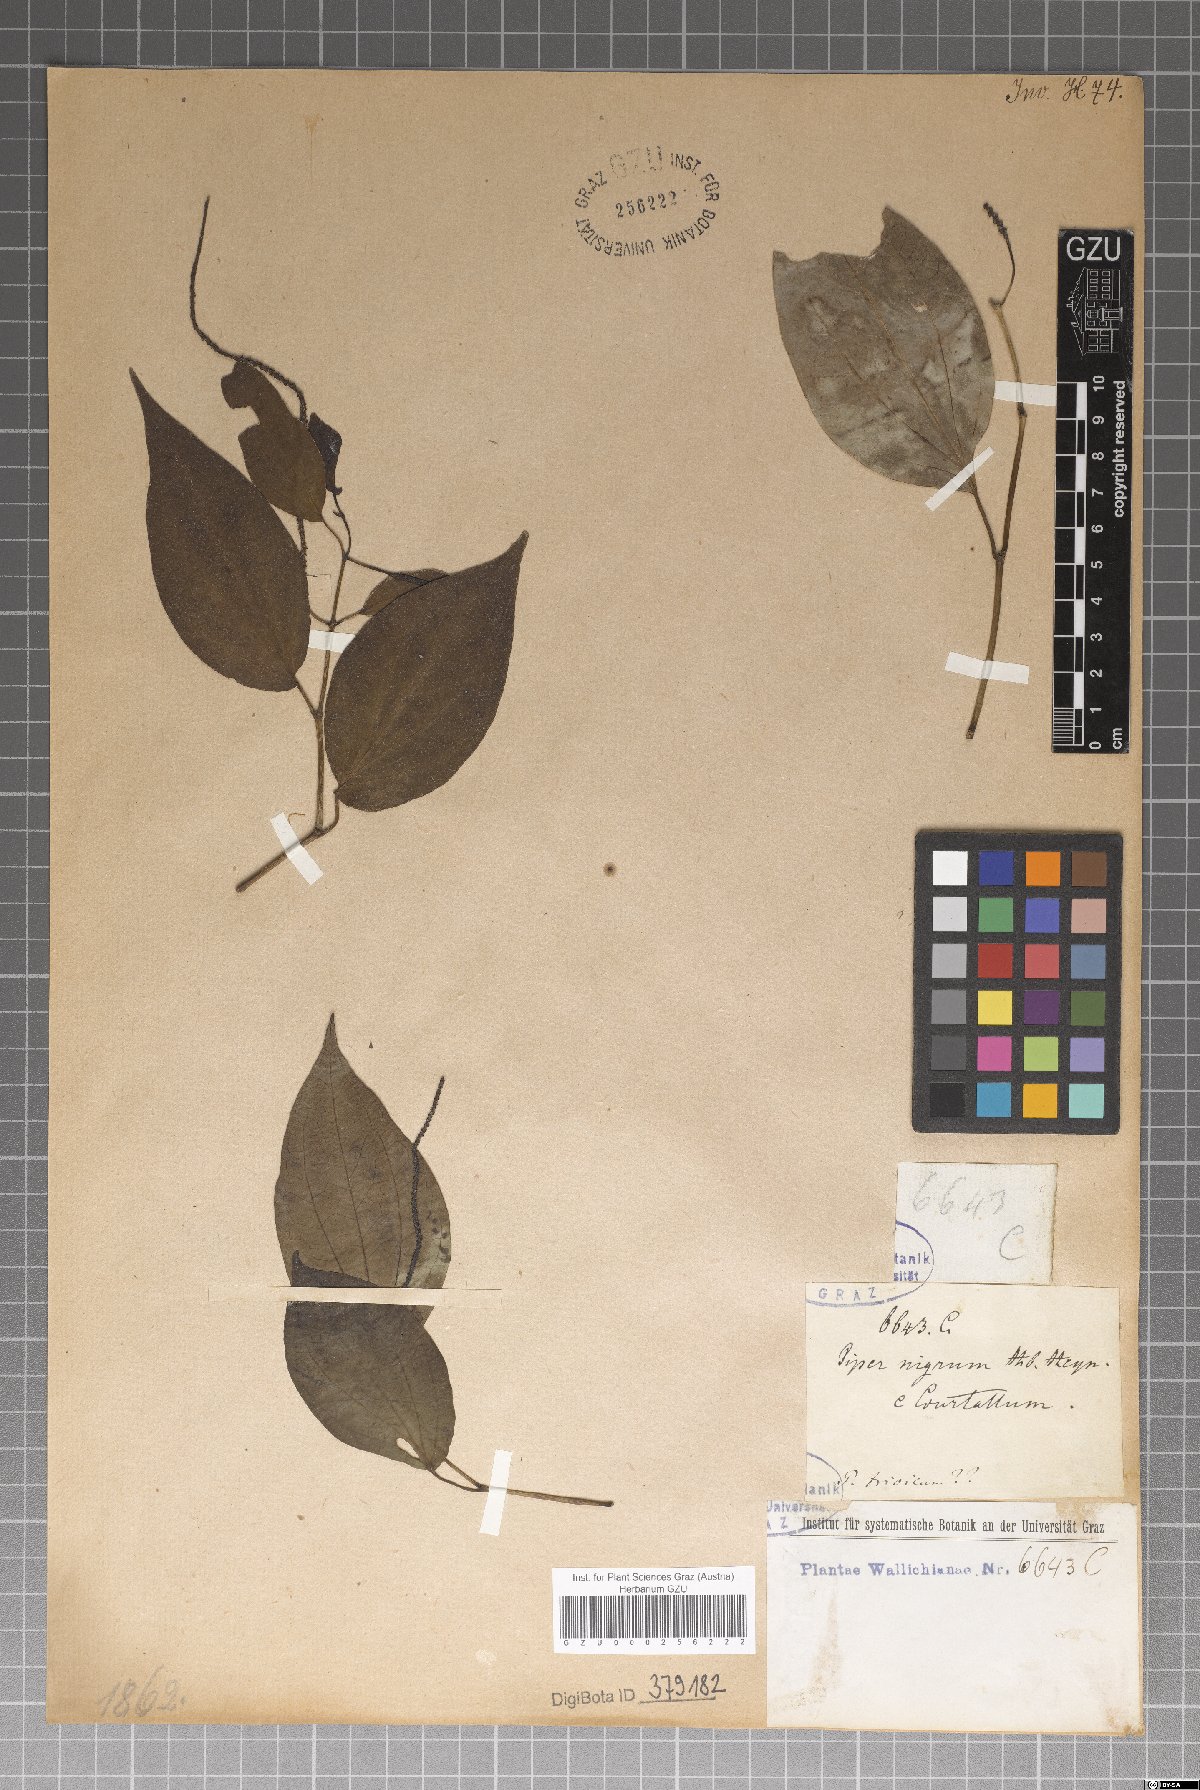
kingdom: Plantae
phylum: Tracheophyta
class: Magnoliopsida
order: Piperales
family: Piperaceae
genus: Piper
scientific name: Piper nigrum
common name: Black pepper
